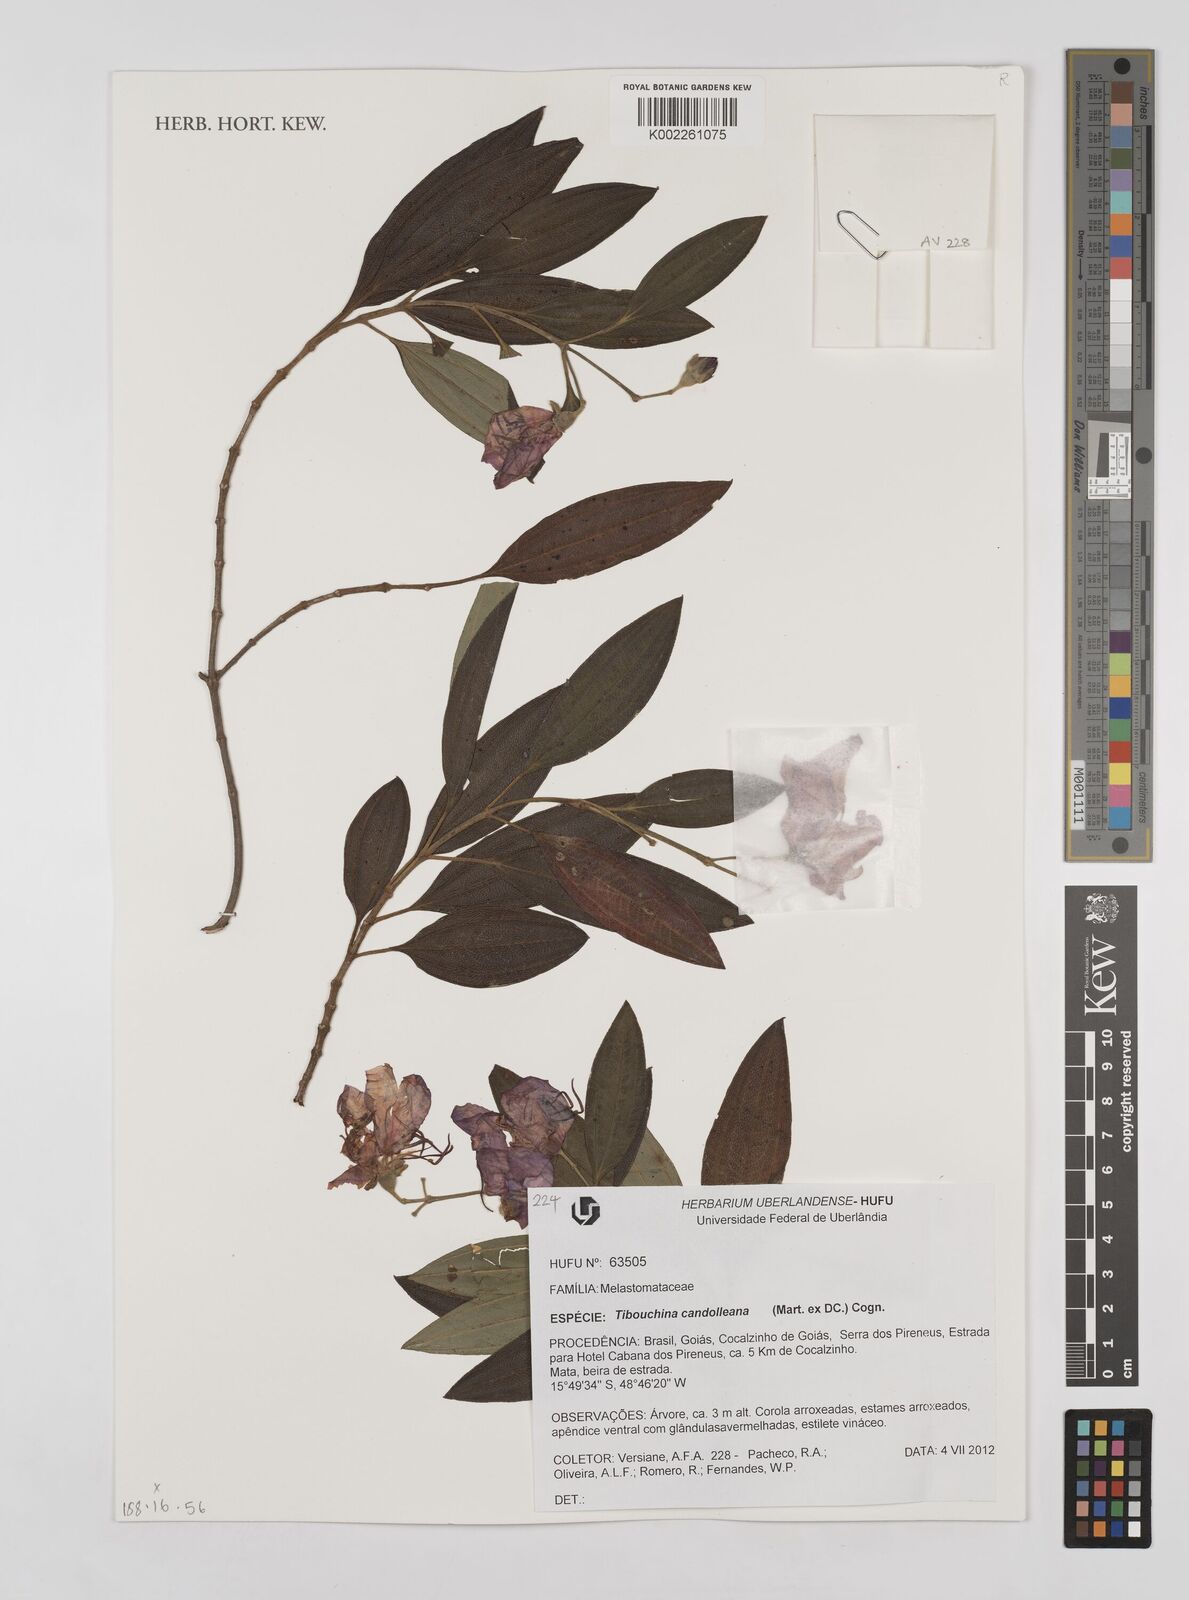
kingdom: Plantae
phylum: Tracheophyta
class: Magnoliopsida
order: Myrtales
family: Melastomataceae
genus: Pleroma
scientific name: Pleroma candolleanum
